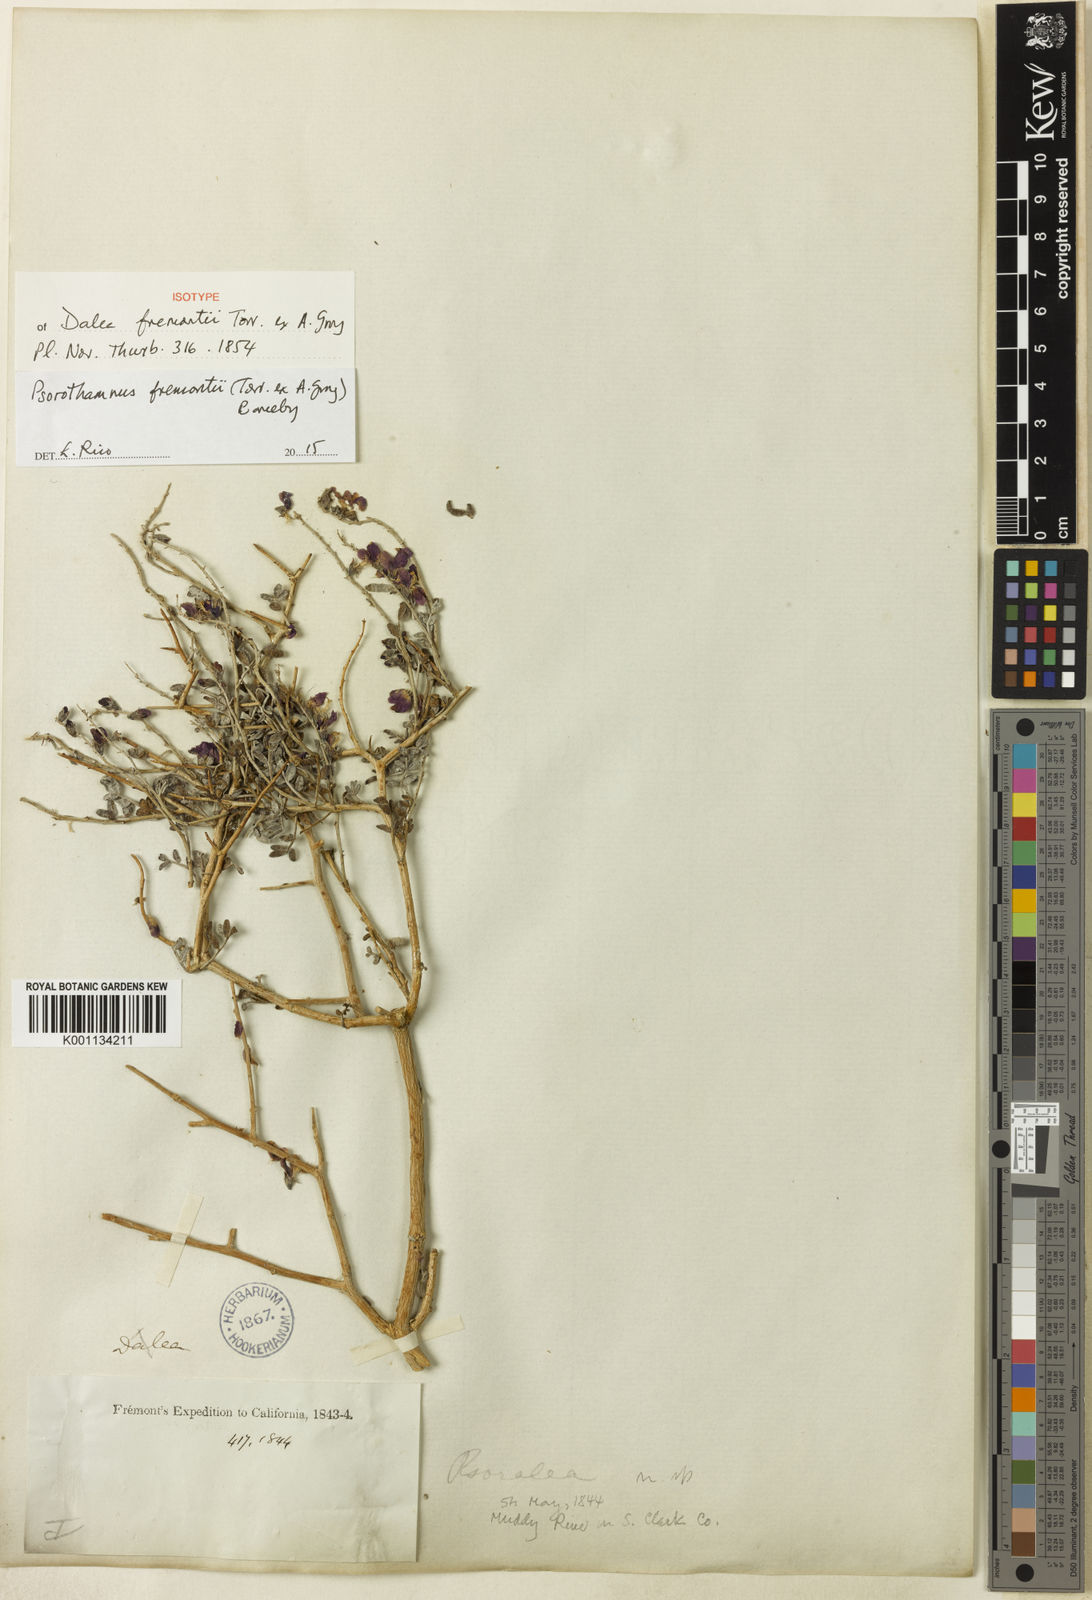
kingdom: Plantae
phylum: Tracheophyta
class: Magnoliopsida
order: Fabales
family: Fabaceae
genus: Psorothamnus
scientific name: Psorothamnus fremontii
